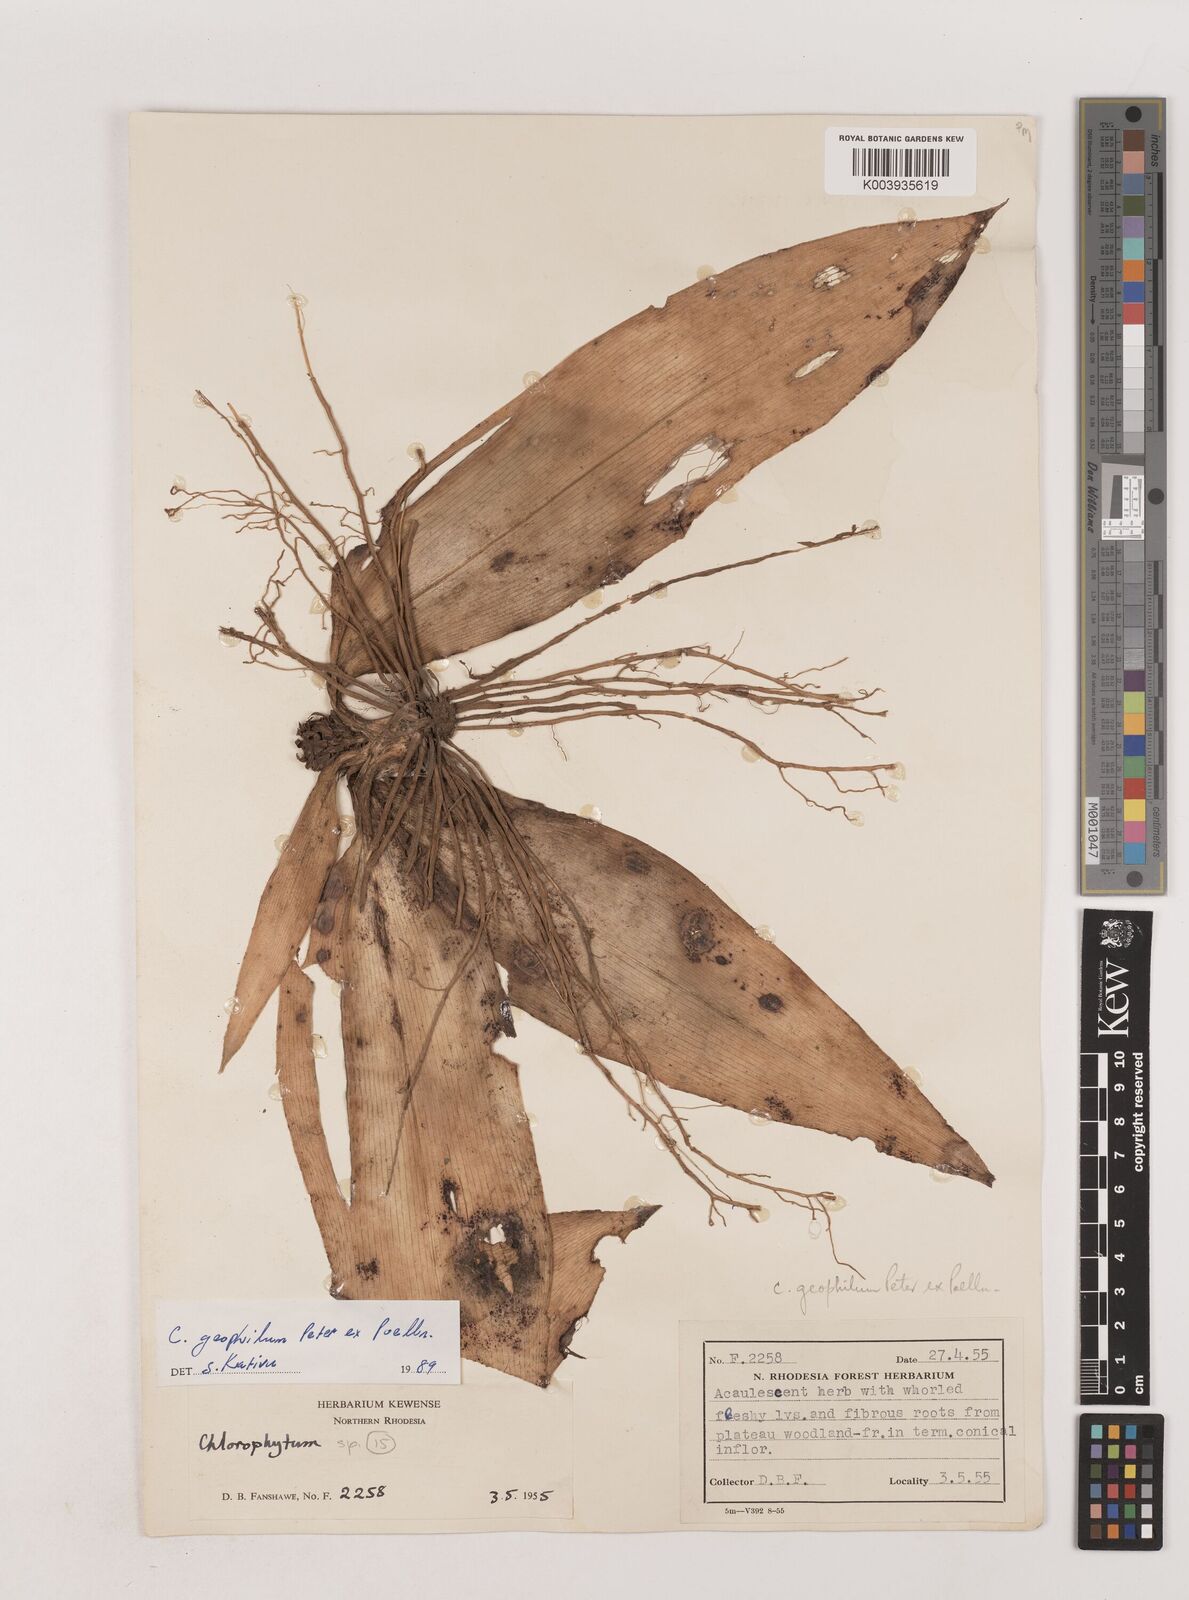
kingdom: Plantae
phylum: Tracheophyta
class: Liliopsida
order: Asparagales
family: Asparagaceae
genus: Chlorophytum
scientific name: Chlorophytum geophilum
